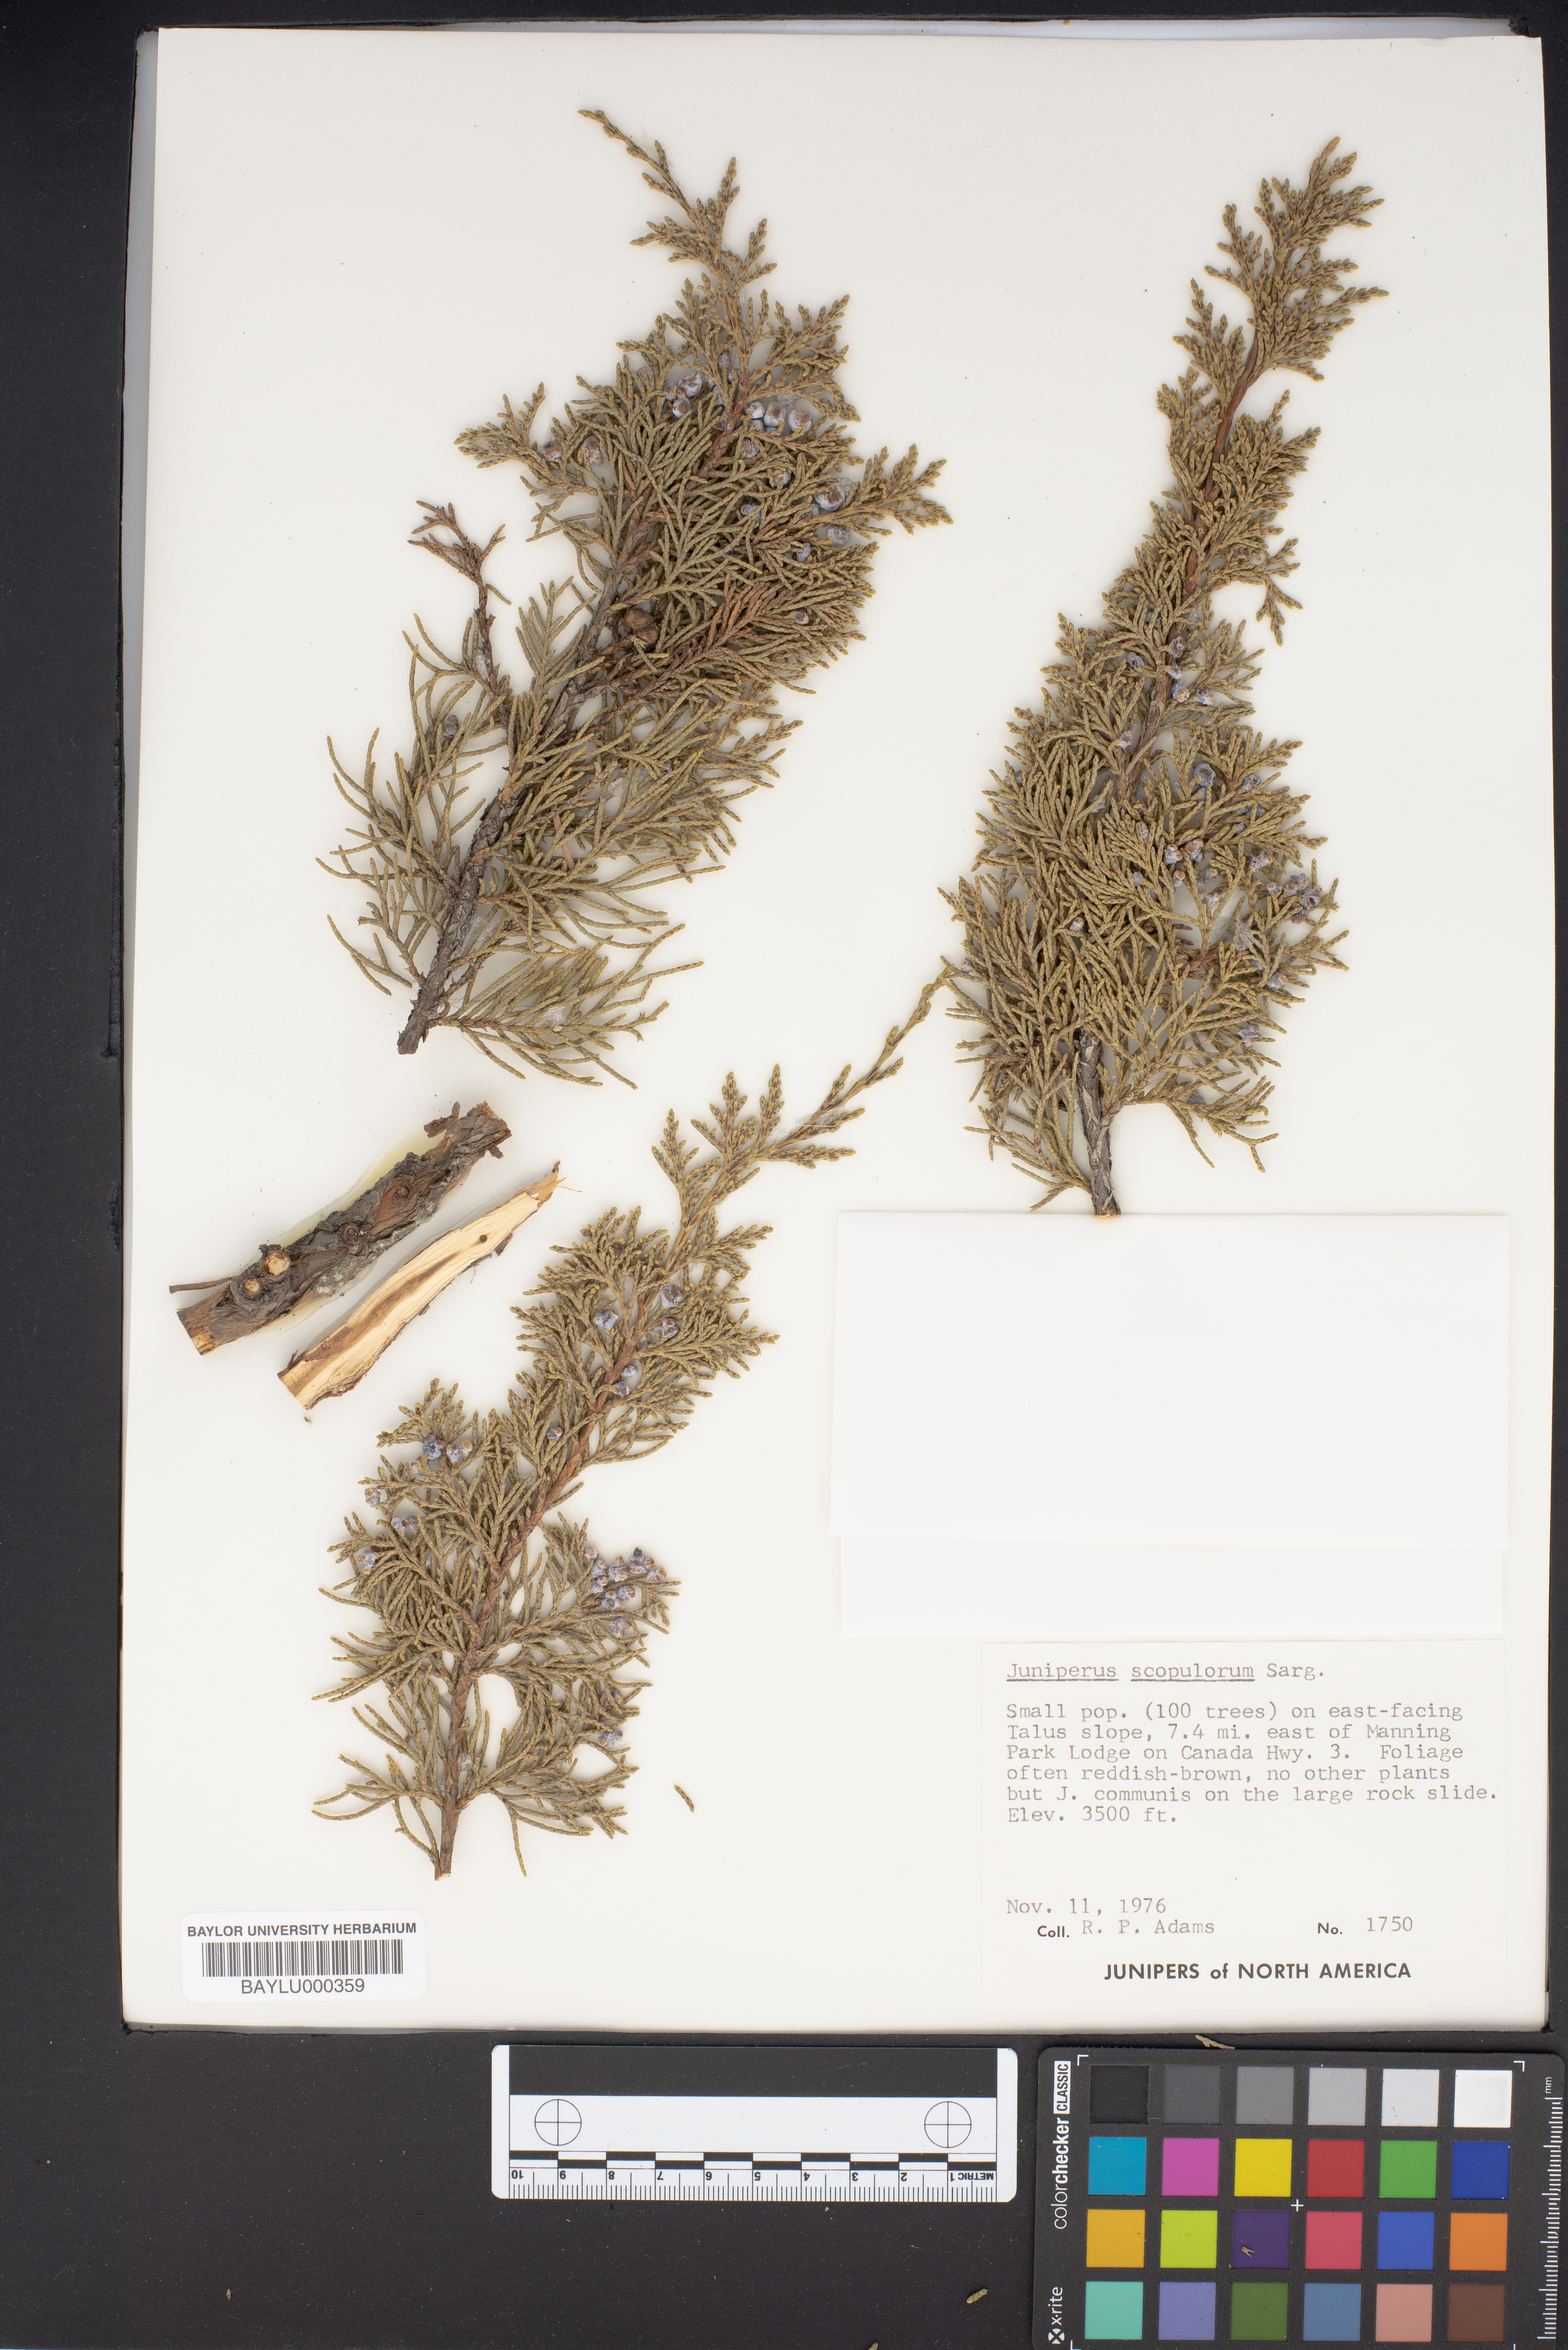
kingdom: Plantae
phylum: Tracheophyta
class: Pinopsida
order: Pinales
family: Cupressaceae
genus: Juniperus
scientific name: Juniperus scopulorum
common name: Rocky mountain juniper
